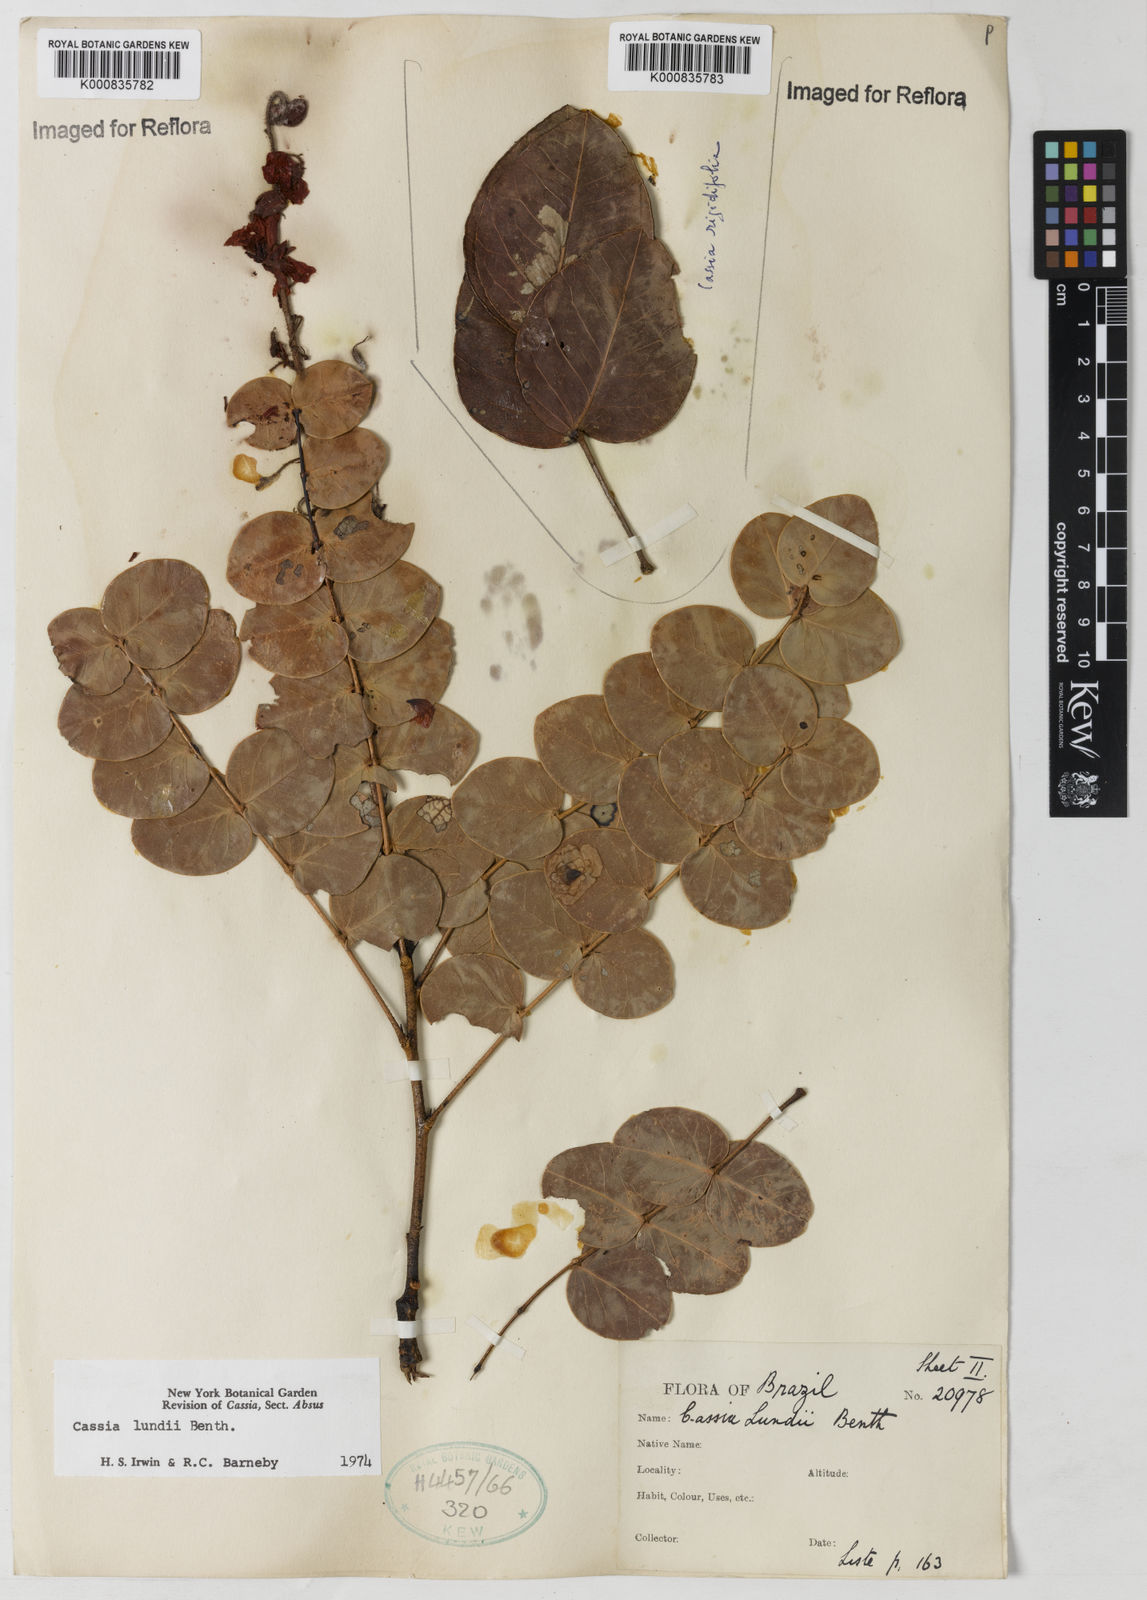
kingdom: Plantae
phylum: Tracheophyta
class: Magnoliopsida
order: Fabales
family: Fabaceae
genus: Chamaecrista
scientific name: Chamaecrista lundii
